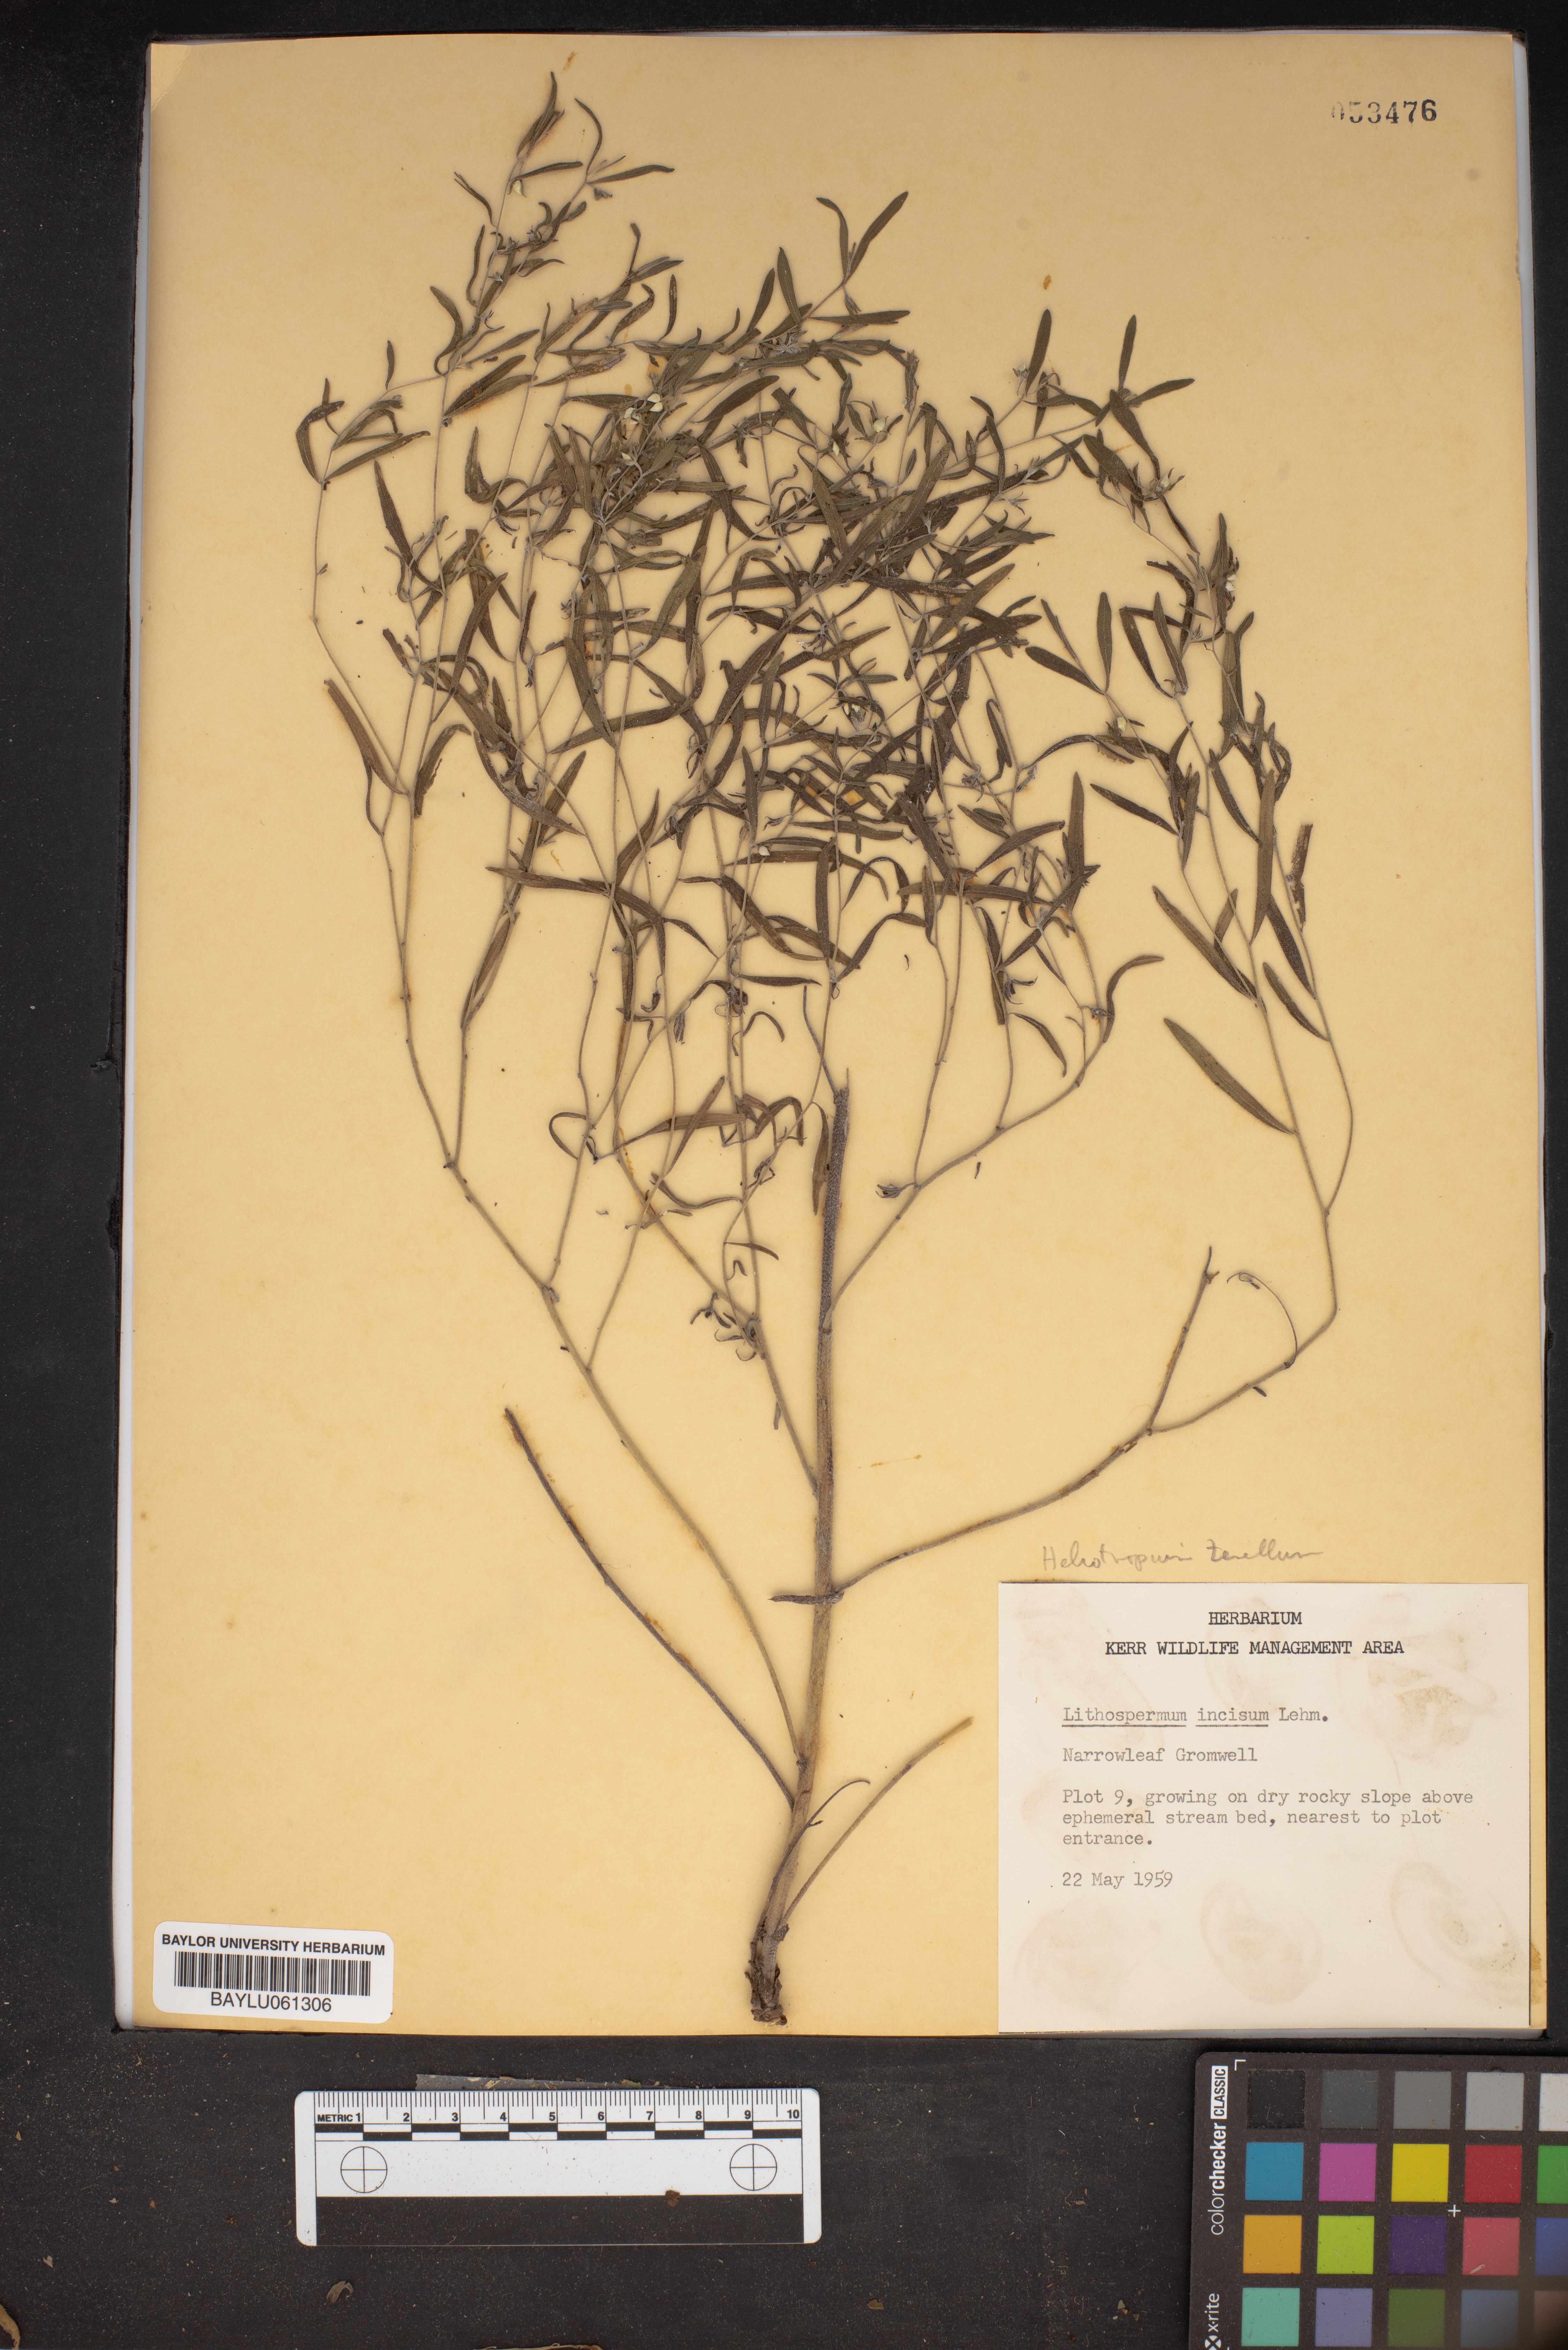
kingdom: Plantae
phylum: Tracheophyta
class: Magnoliopsida
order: Boraginales
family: Boraginaceae
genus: Lithospermum
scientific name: Lithospermum incisum
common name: Fringed gromwell
